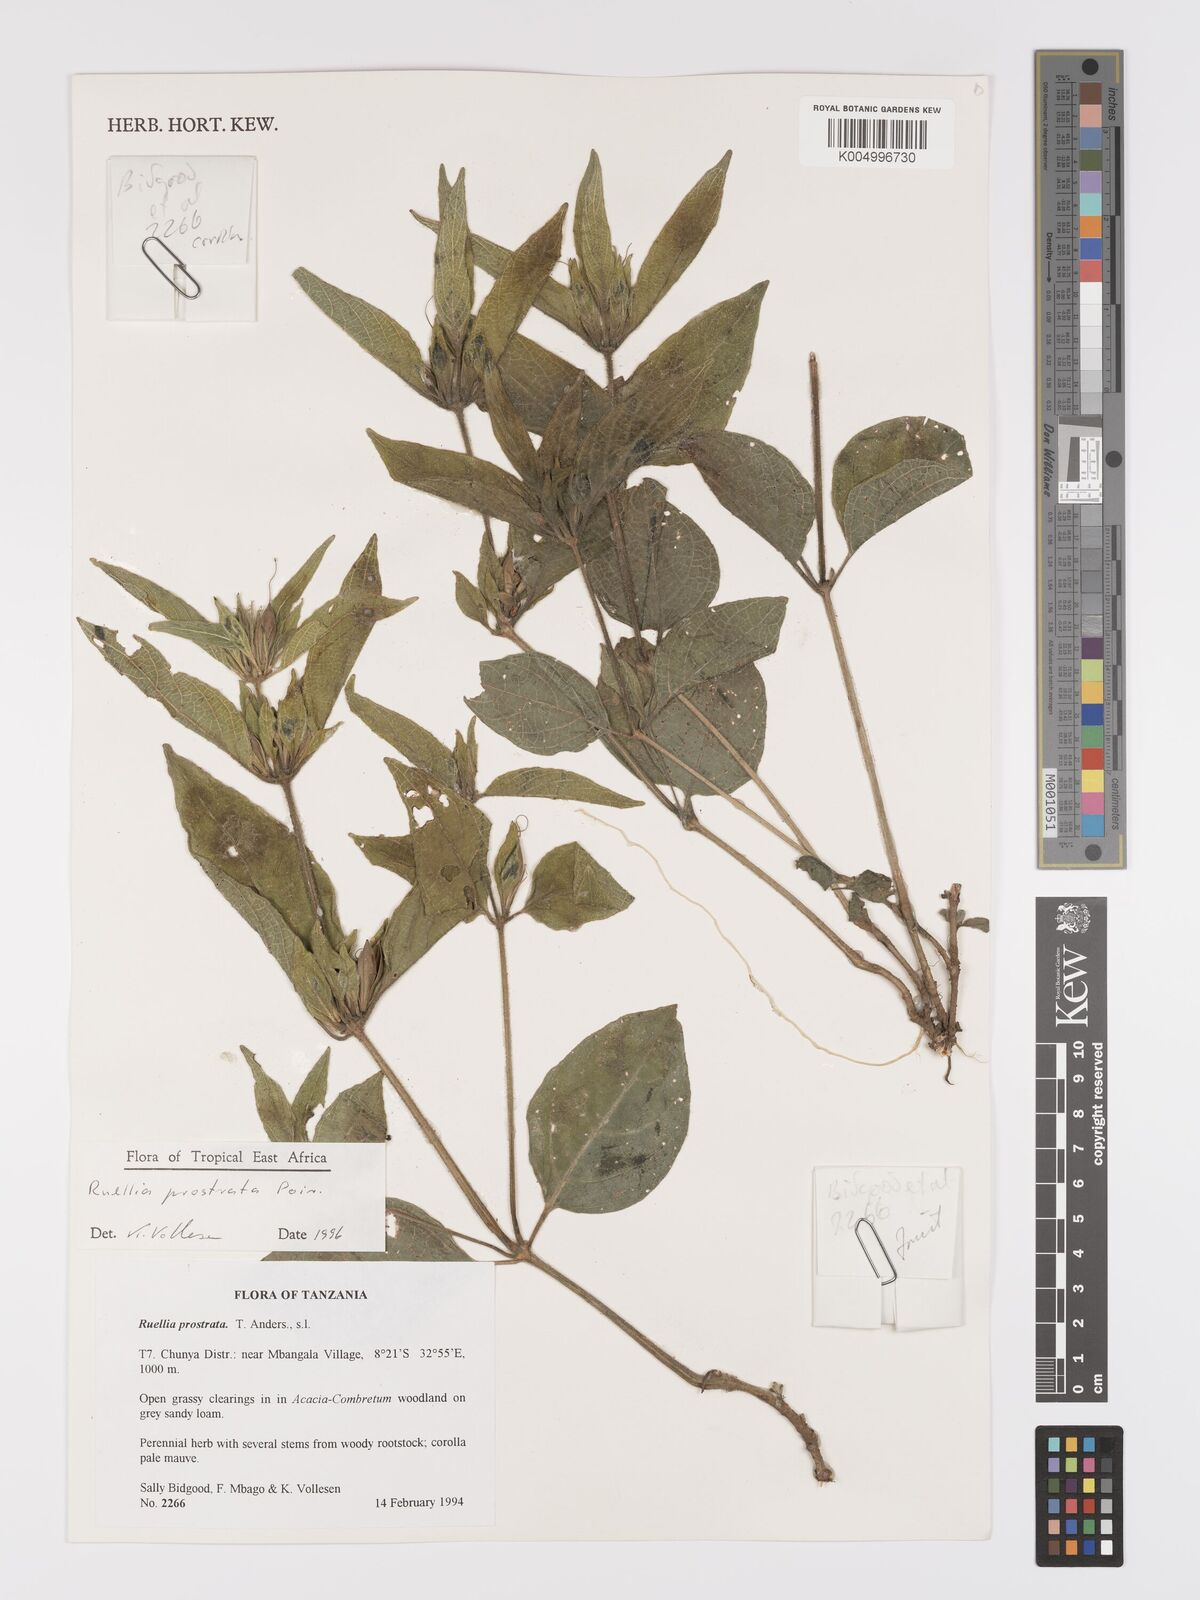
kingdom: Plantae
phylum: Tracheophyta
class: Magnoliopsida
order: Lamiales
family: Acanthaceae
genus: Ruellia
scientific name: Ruellia
